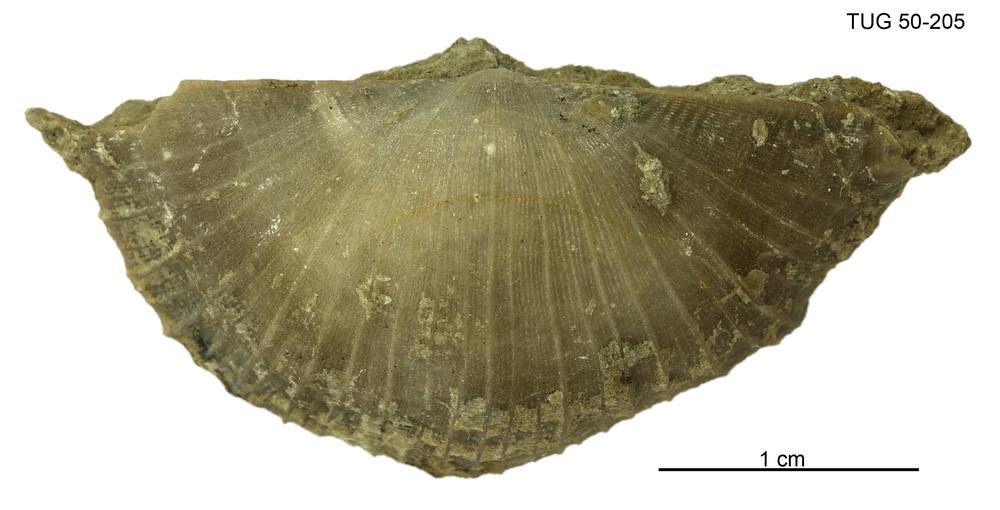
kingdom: Animalia
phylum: Brachiopoda
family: Oldhaminidae
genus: Eoplectodonta
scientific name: Eoplectodonta
